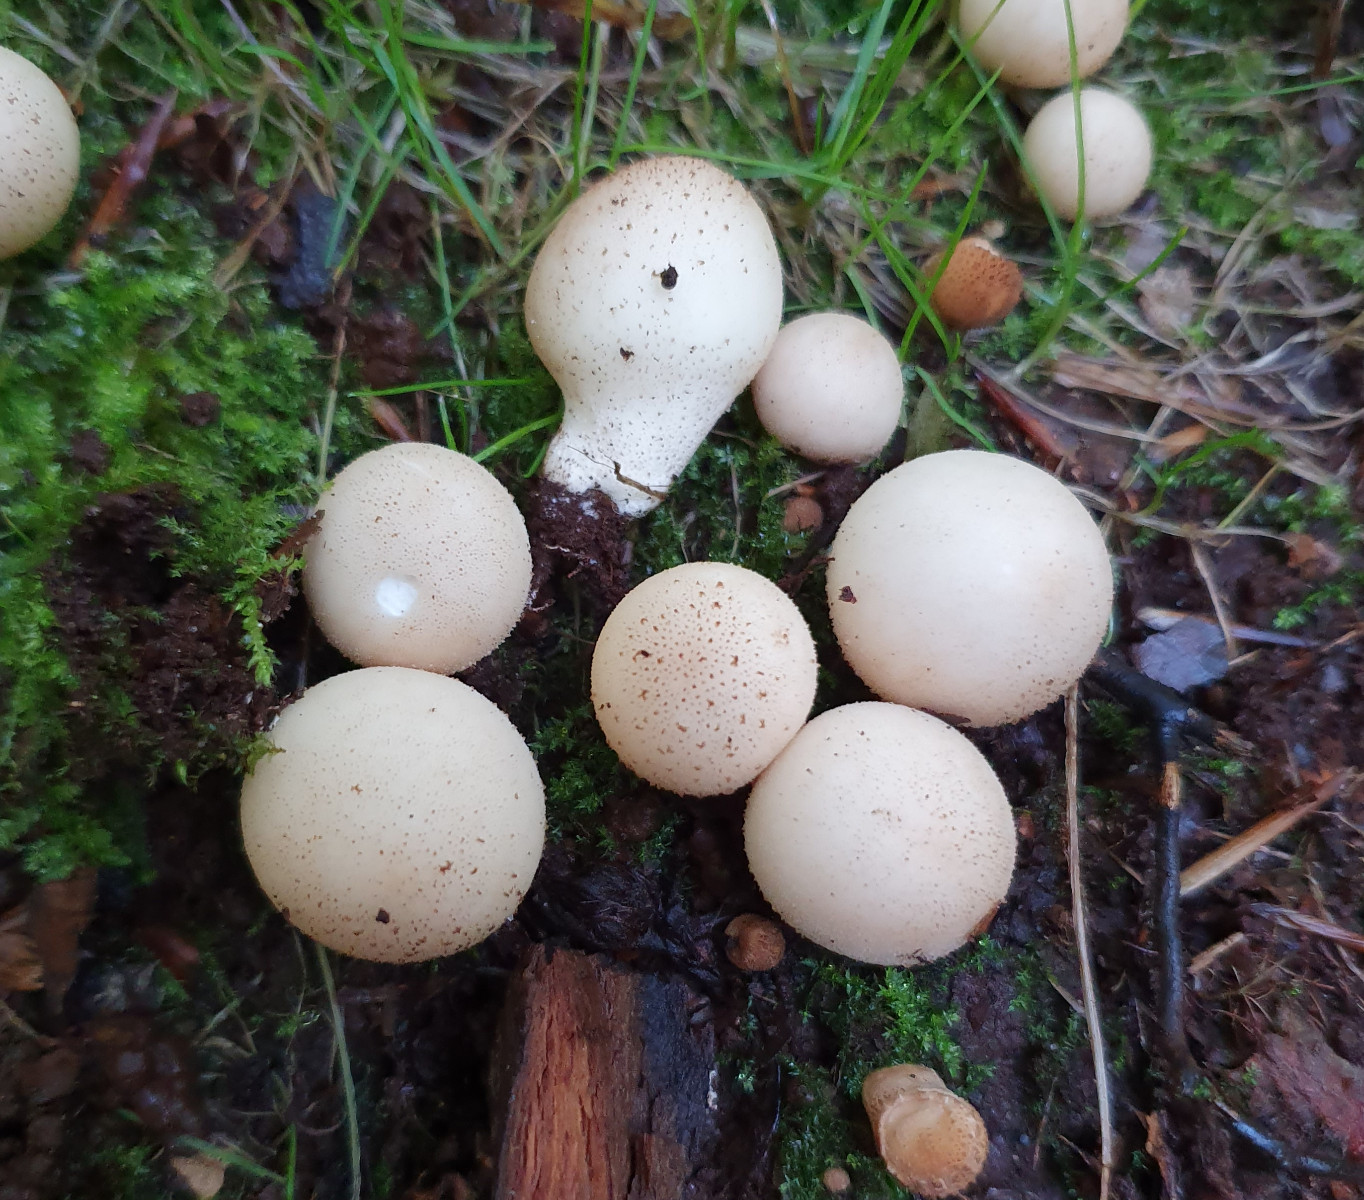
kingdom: Fungi
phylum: Basidiomycota
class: Agaricomycetes
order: Agaricales
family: Lycoperdaceae
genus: Apioperdon
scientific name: Apioperdon pyriforme
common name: pære-støvbold
